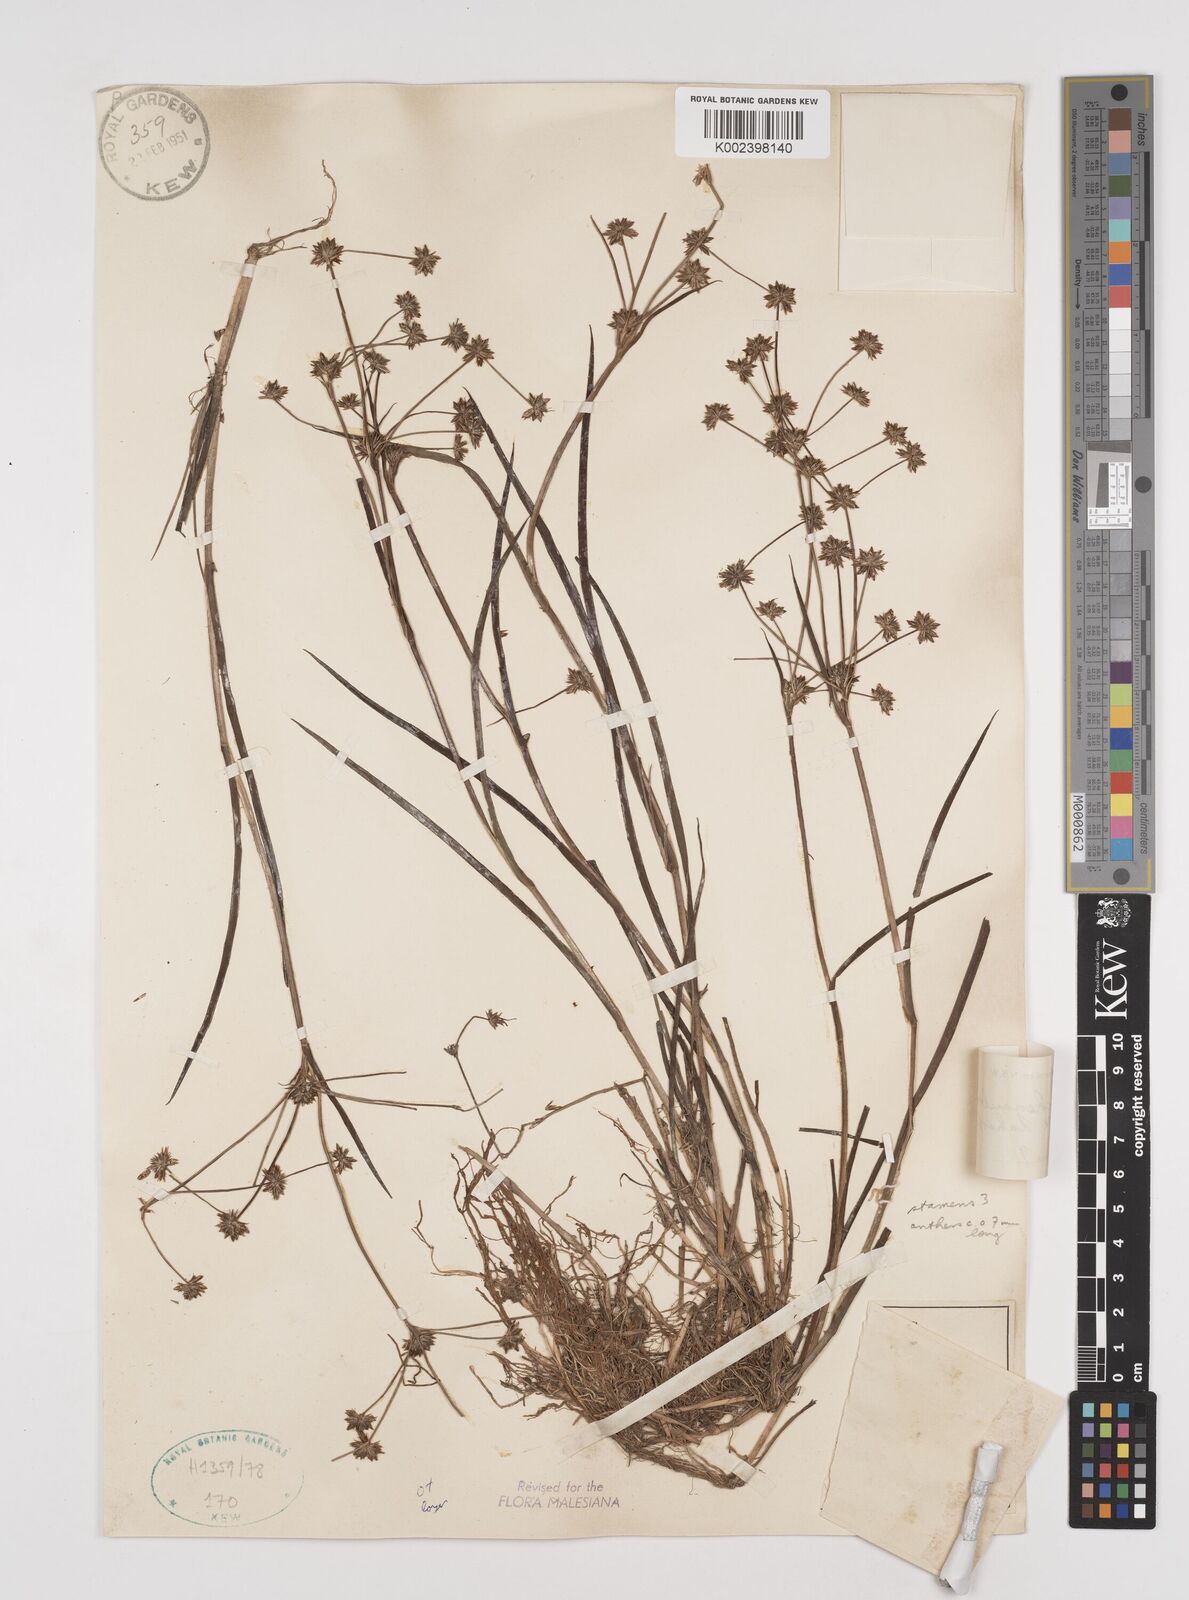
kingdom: Plantae
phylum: Tracheophyta
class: Liliopsida
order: Poales
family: Juncaceae
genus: Juncus
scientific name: Juncus prismatocarpus
